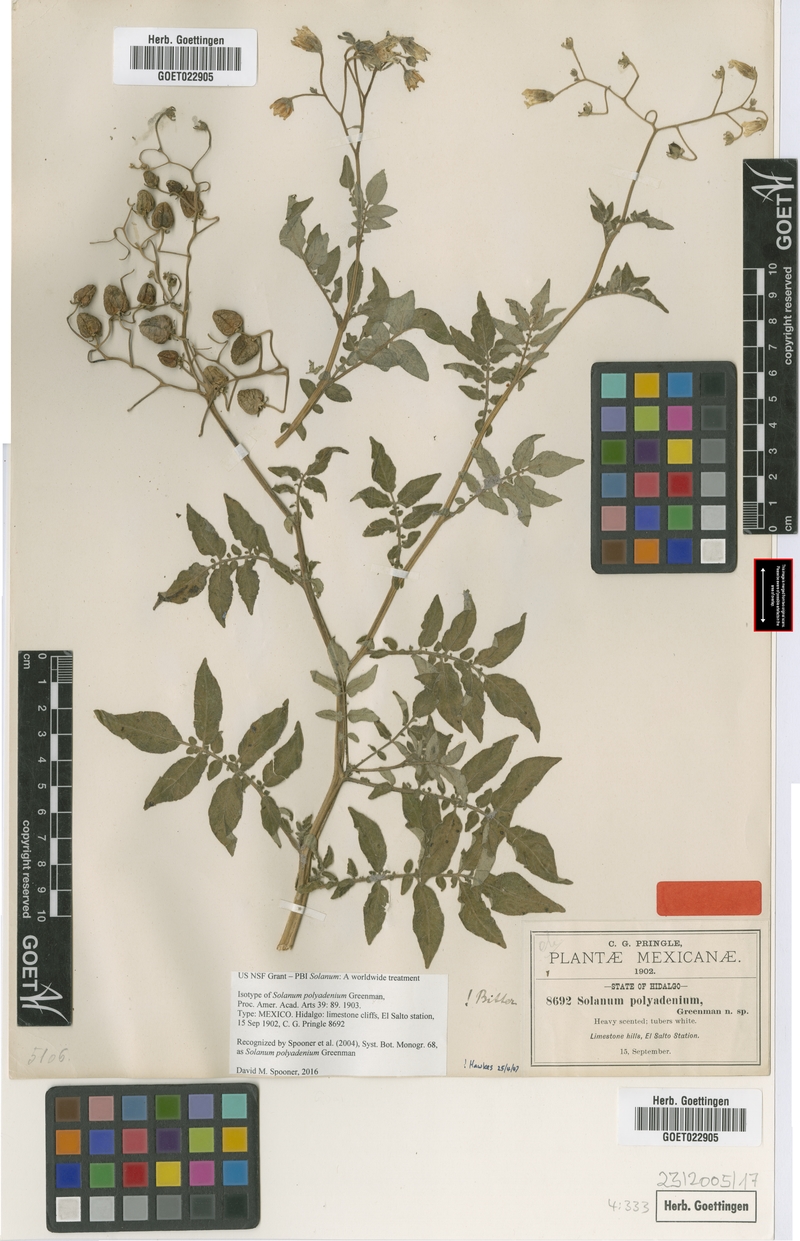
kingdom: Plantae
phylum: Tracheophyta
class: Magnoliopsida
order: Solanales
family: Solanaceae
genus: Solanum
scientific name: Solanum polyadenium
